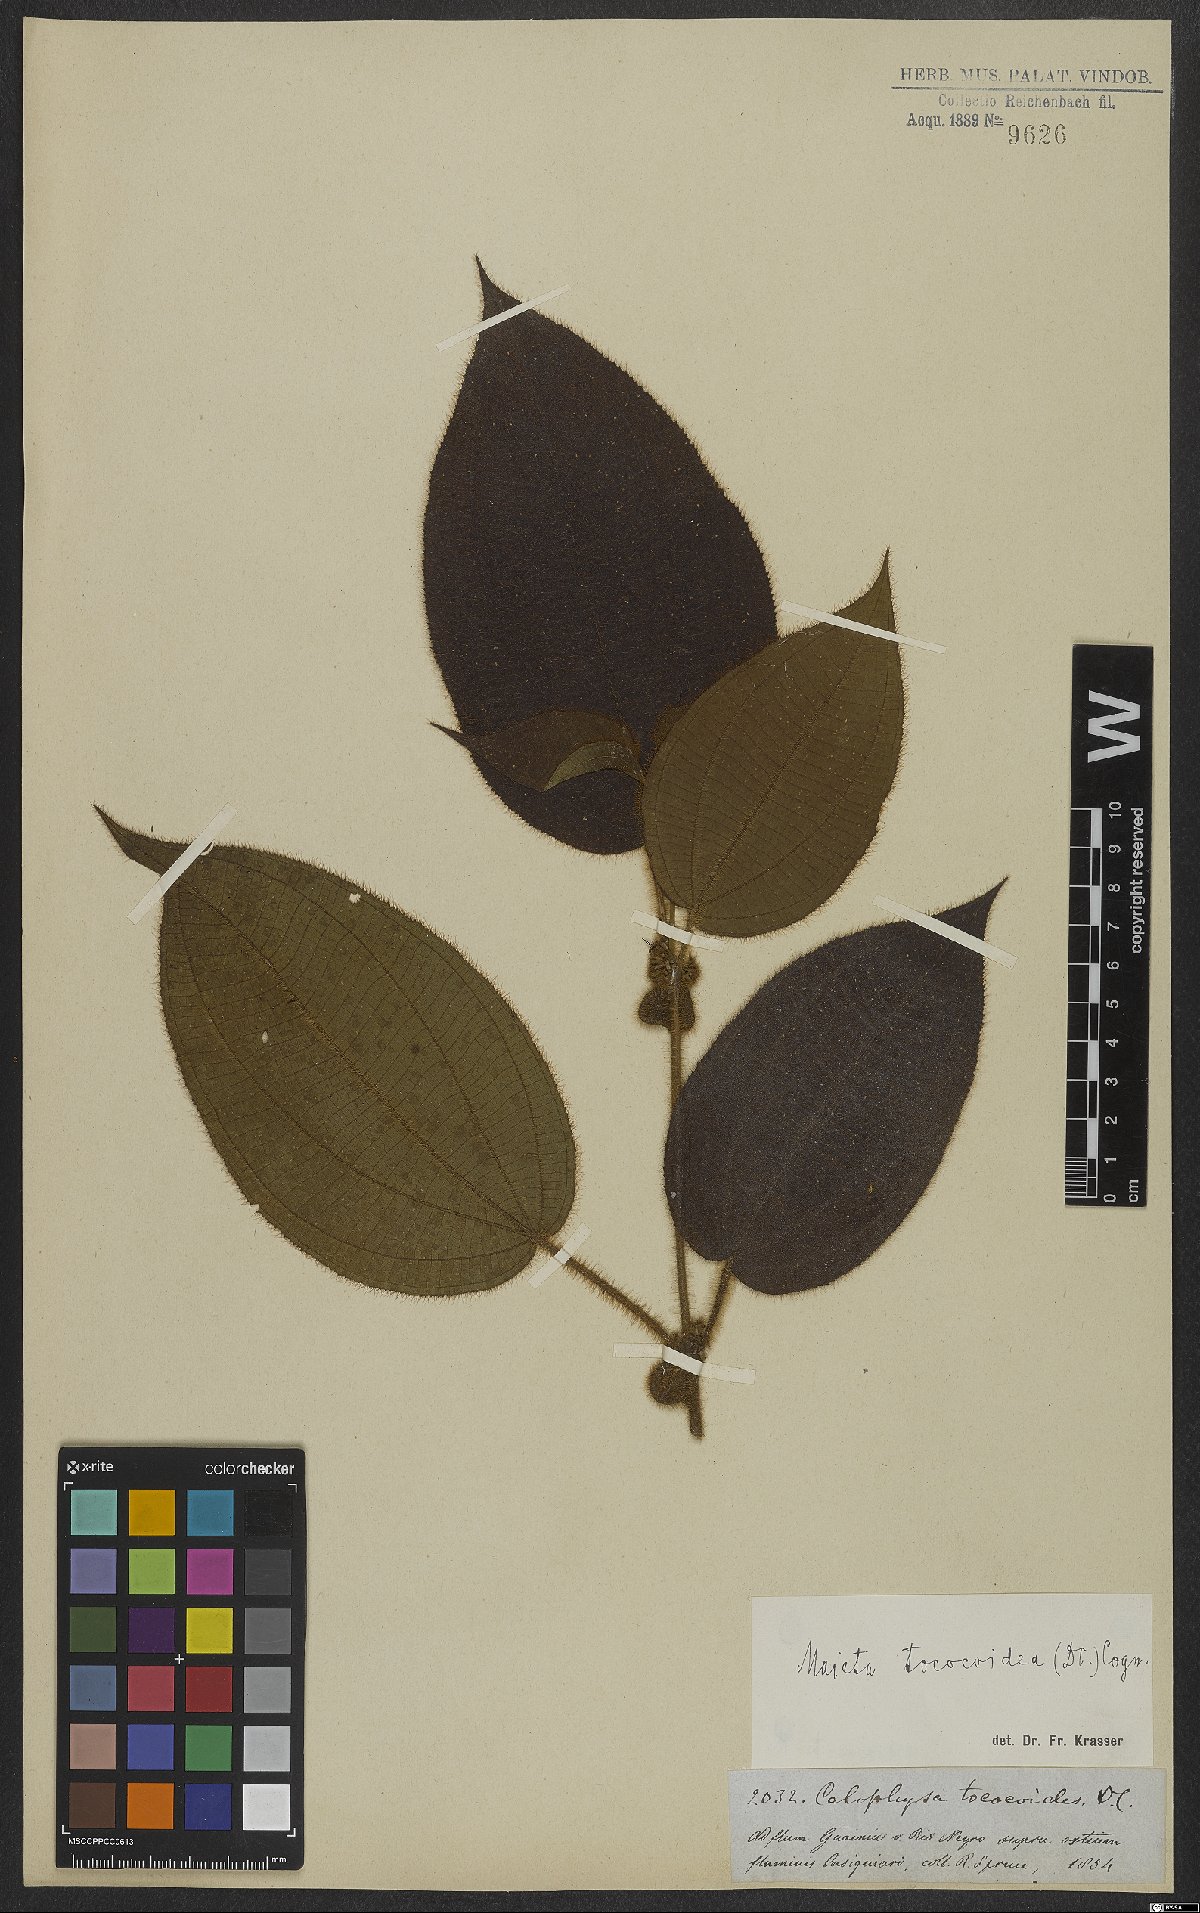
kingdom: Plantae
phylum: Tracheophyta
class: Magnoliopsida
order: Myrtales
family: Melastomataceae
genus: Miconia
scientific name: Miconia tococoidea
